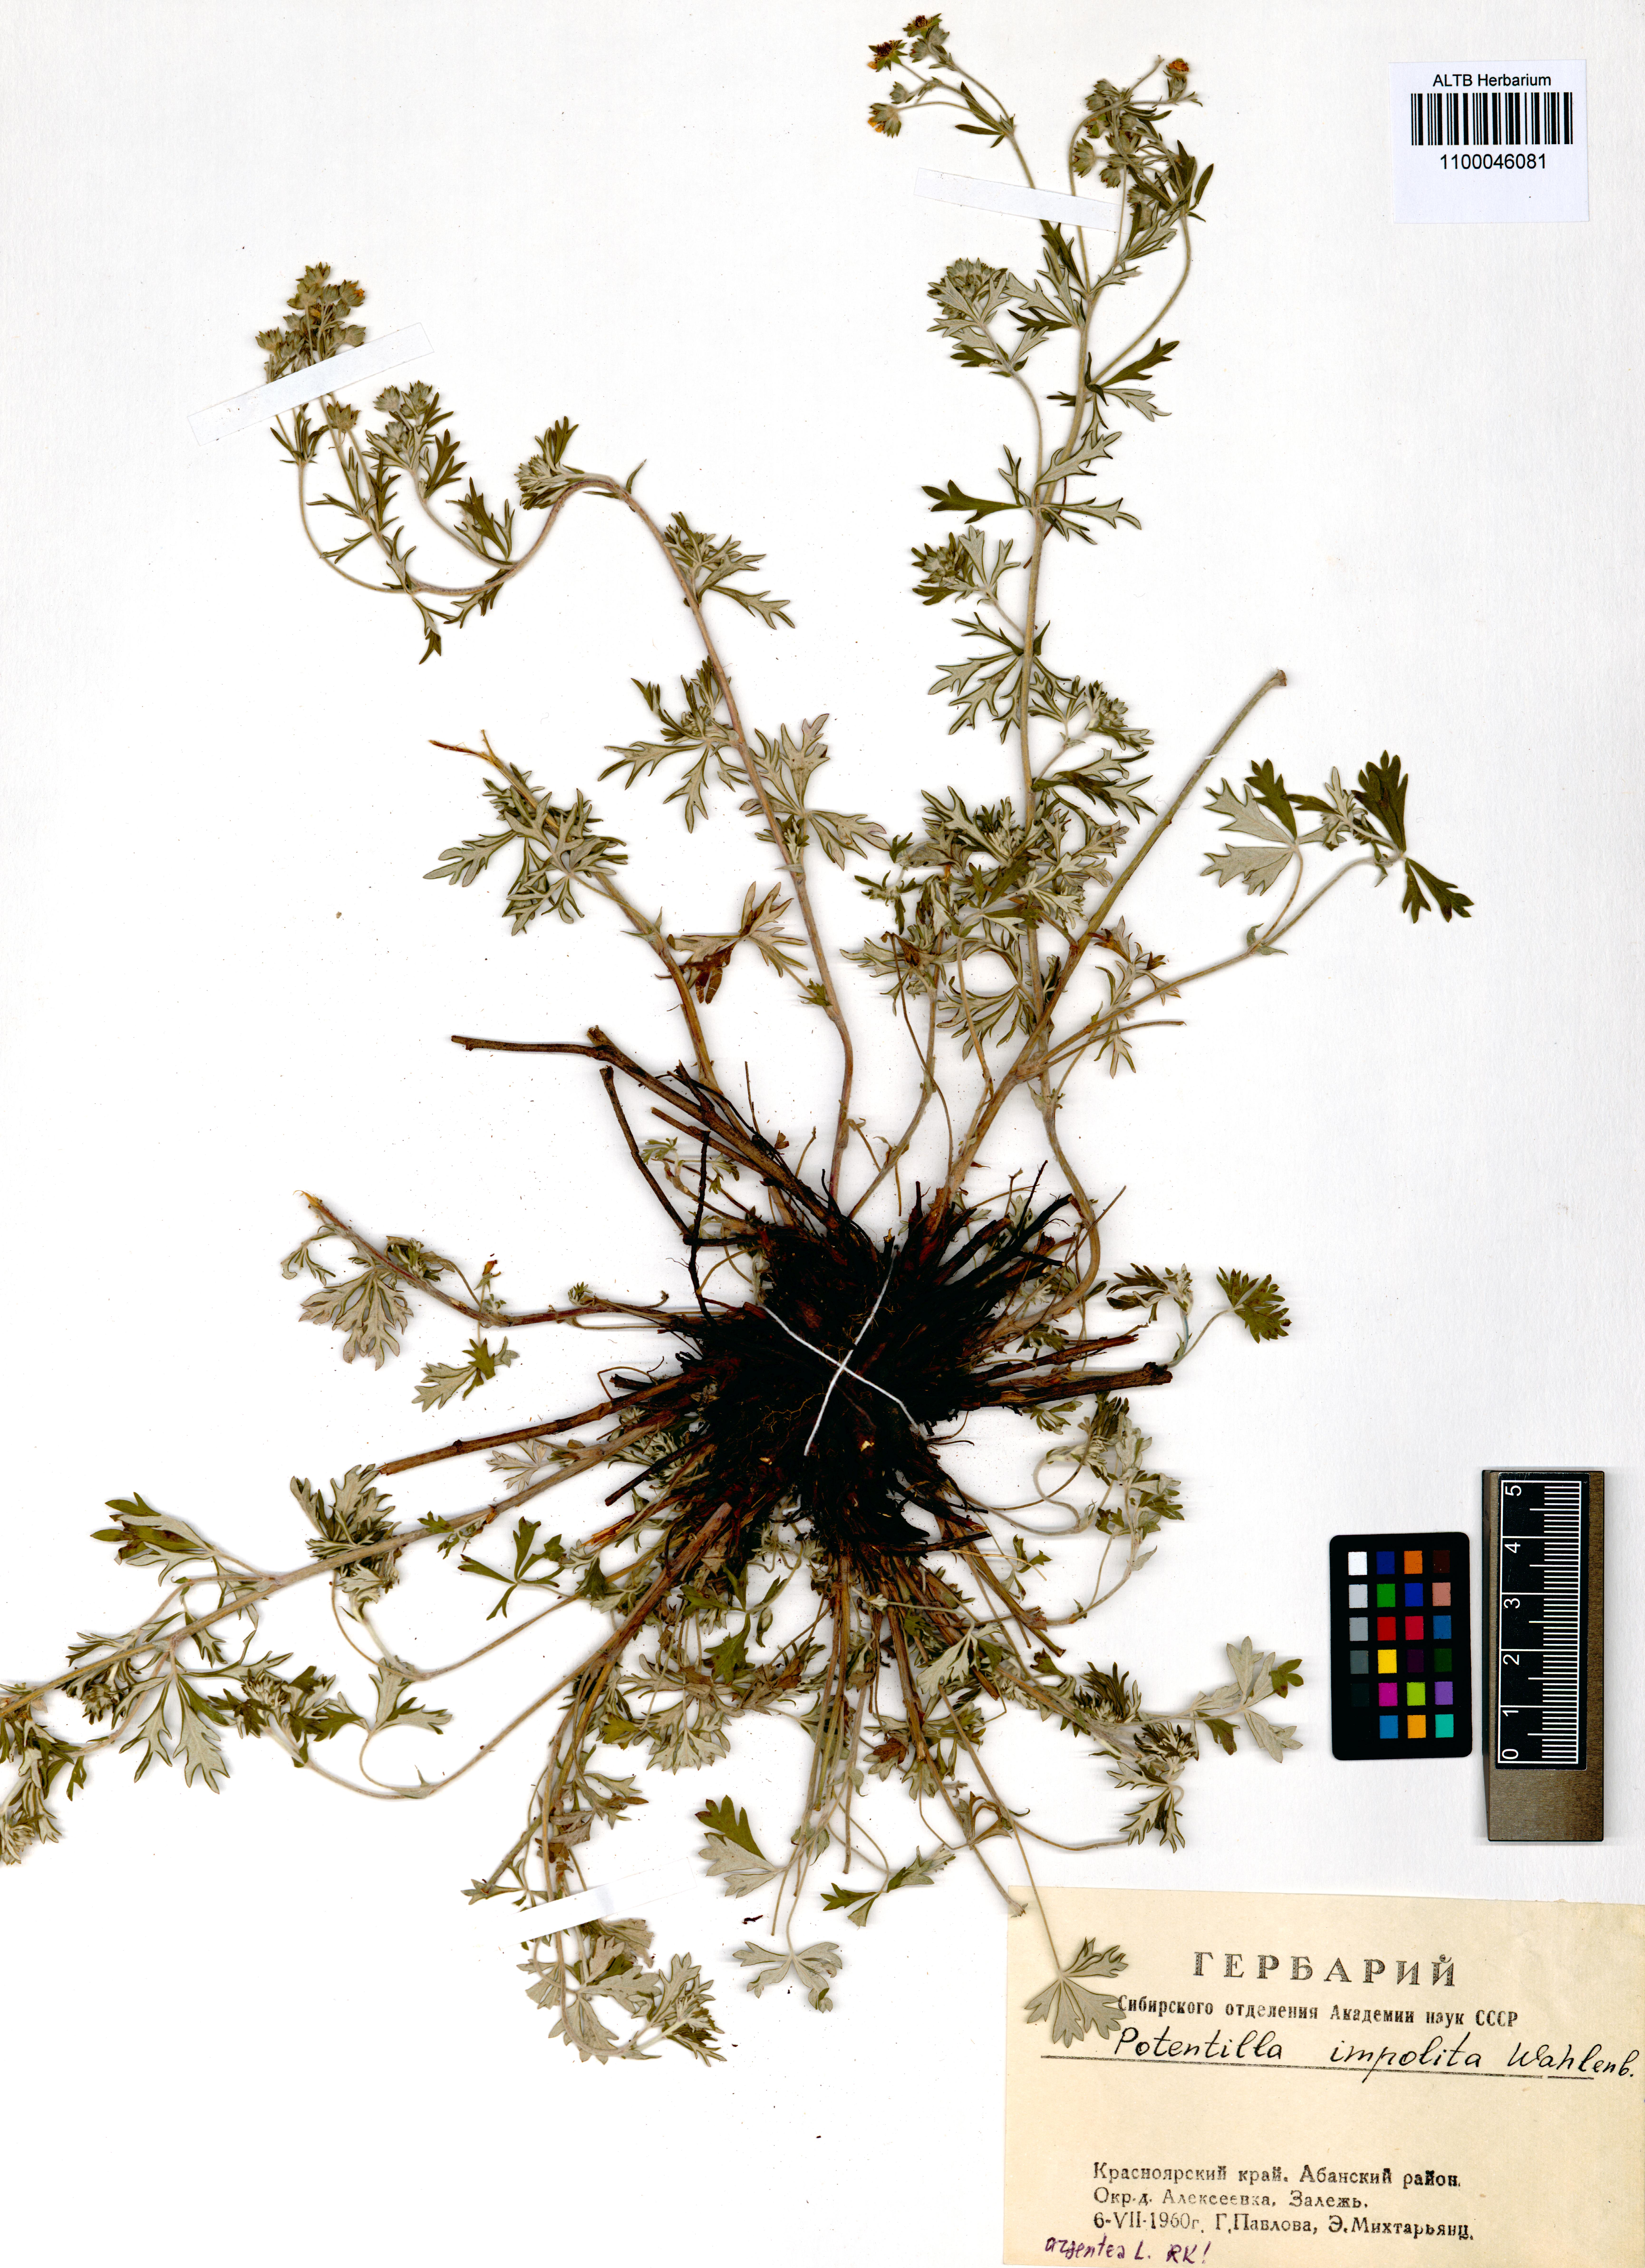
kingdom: Plantae
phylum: Tracheophyta
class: Magnoliopsida
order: Rosales
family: Rosaceae
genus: Potentilla
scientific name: Potentilla argentea
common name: Hoary cinquefoil
